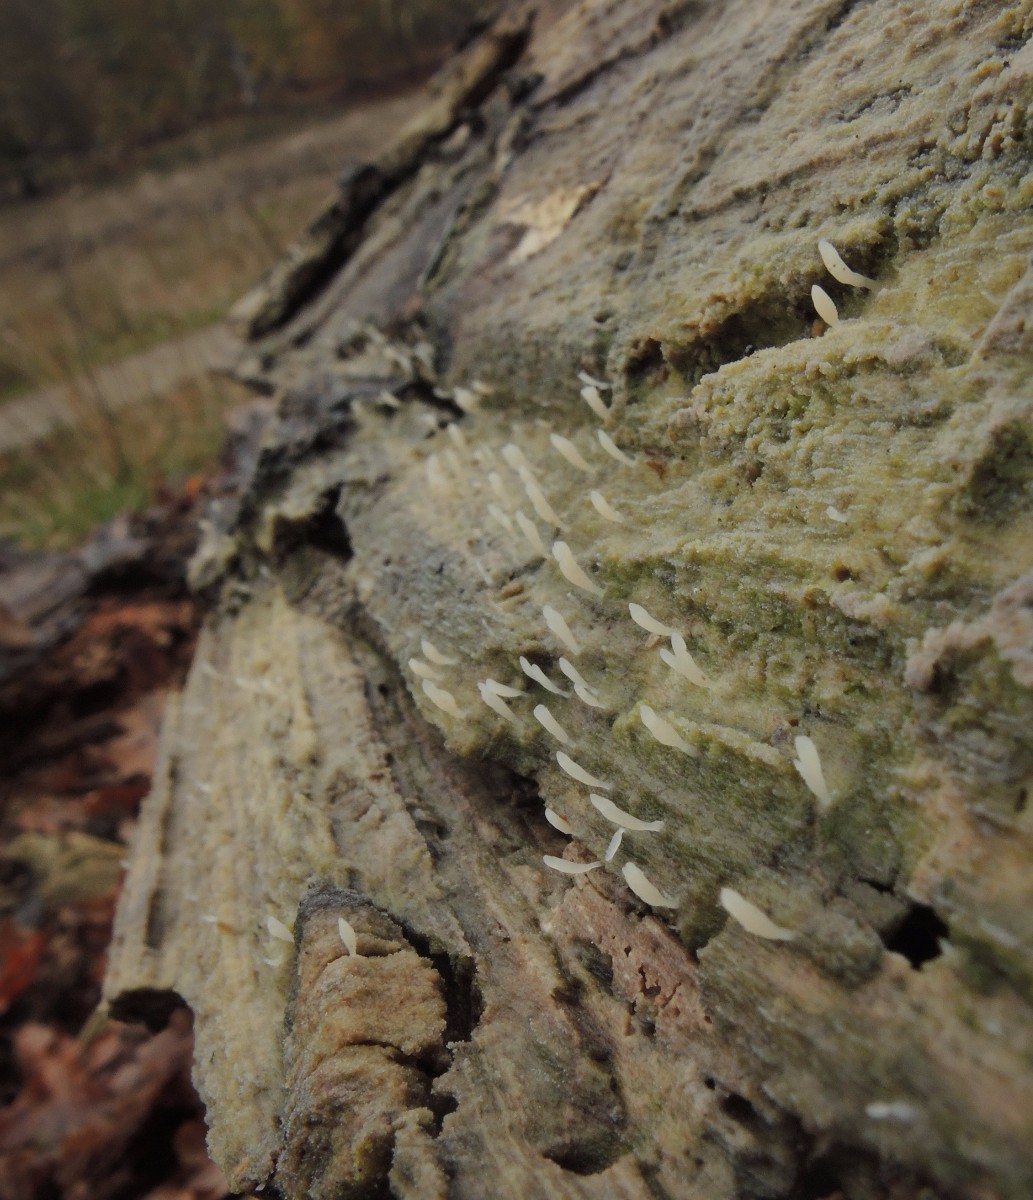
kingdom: Fungi
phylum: Basidiomycota
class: Agaricomycetes
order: Cantharellales
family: Hydnaceae
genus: Multiclavula
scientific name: Multiclavula mucida
